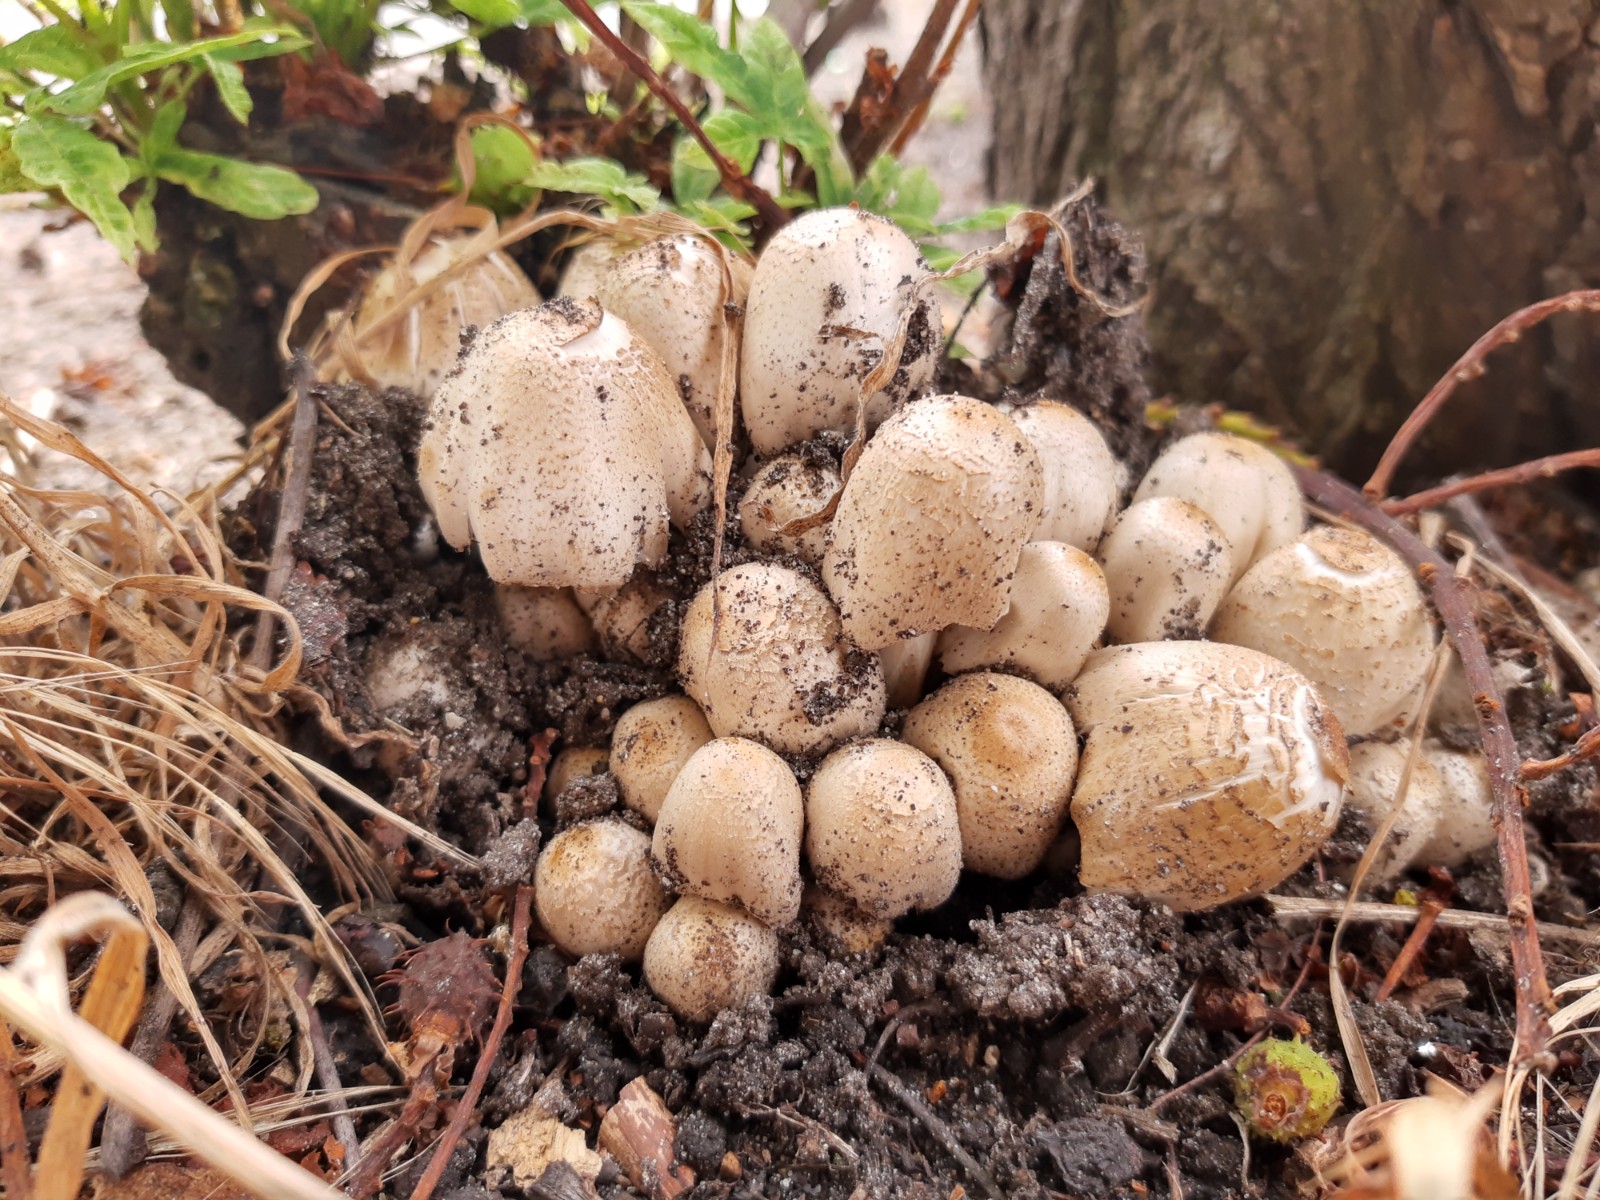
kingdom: Fungi
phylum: Basidiomycota
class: Agaricomycetes
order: Agaricales
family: Psathyrellaceae
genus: Coprinopsis
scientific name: Coprinopsis romagnesiana
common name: brunskællet blækhat
